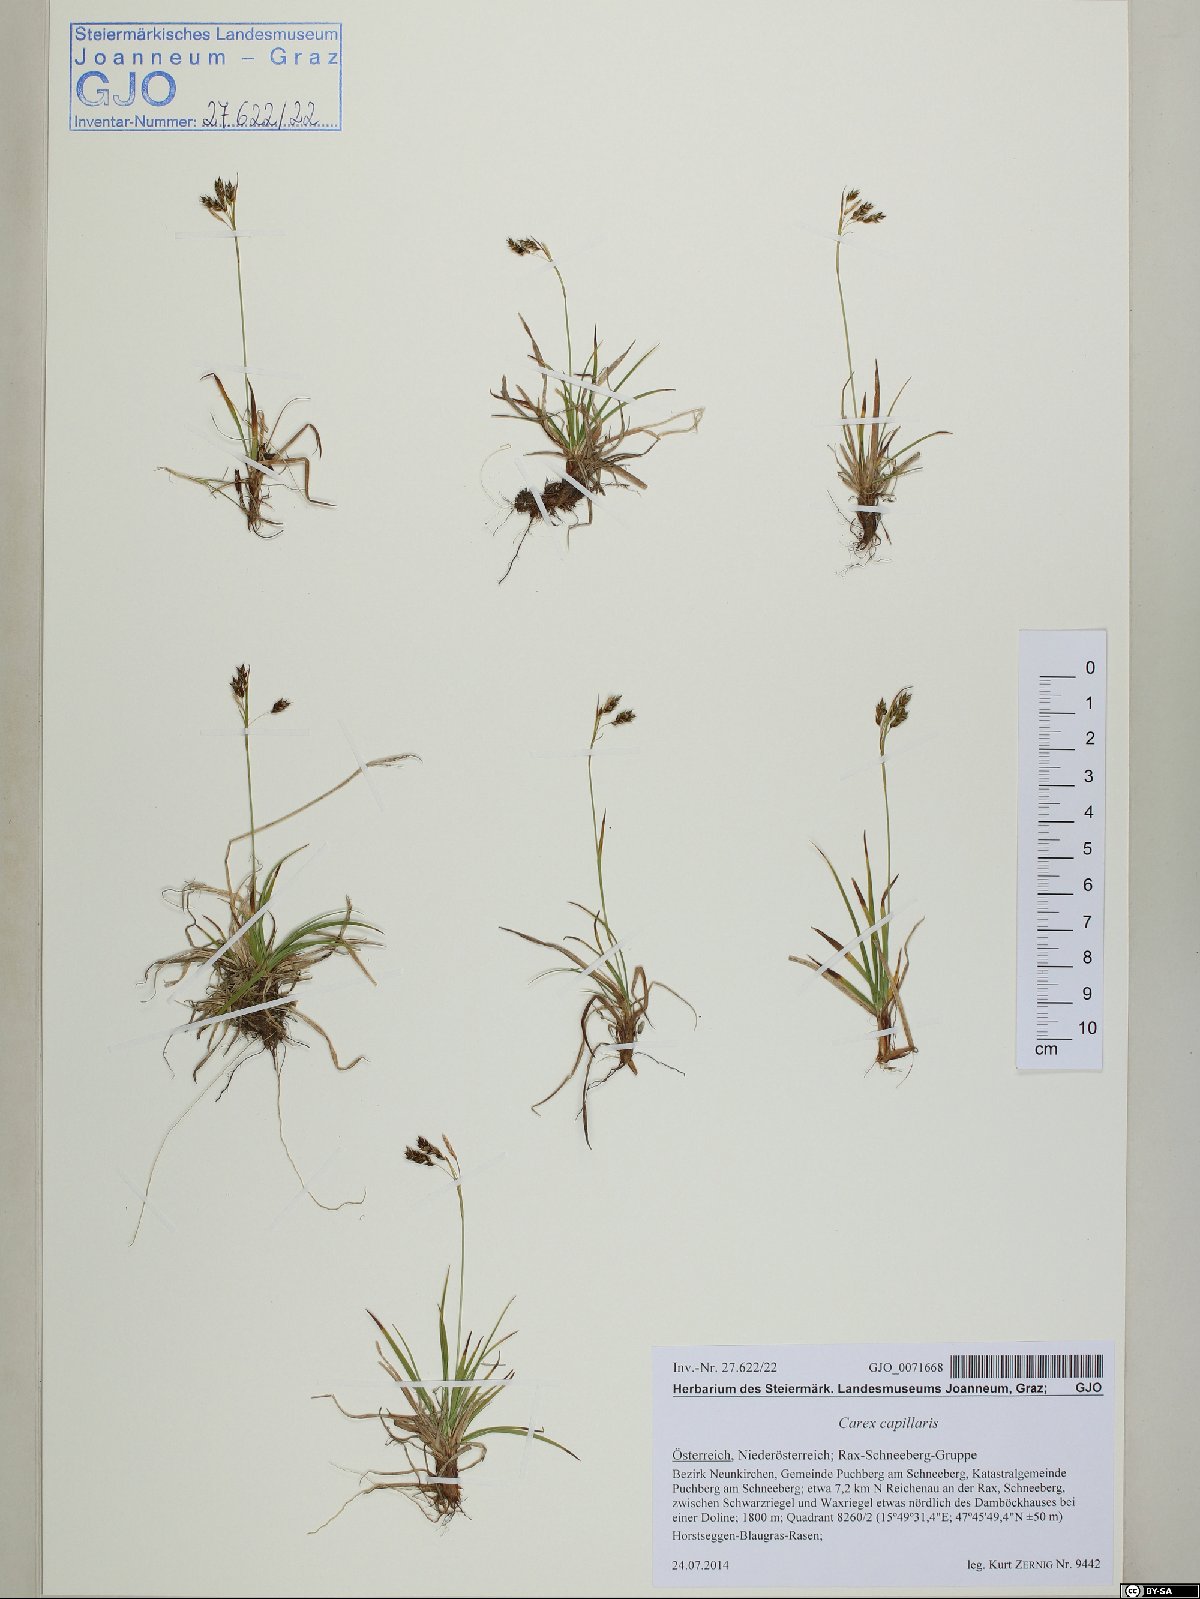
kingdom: Plantae
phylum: Tracheophyta
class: Liliopsida
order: Poales
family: Cyperaceae
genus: Carex
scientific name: Carex capillaris
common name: Hair sedge
